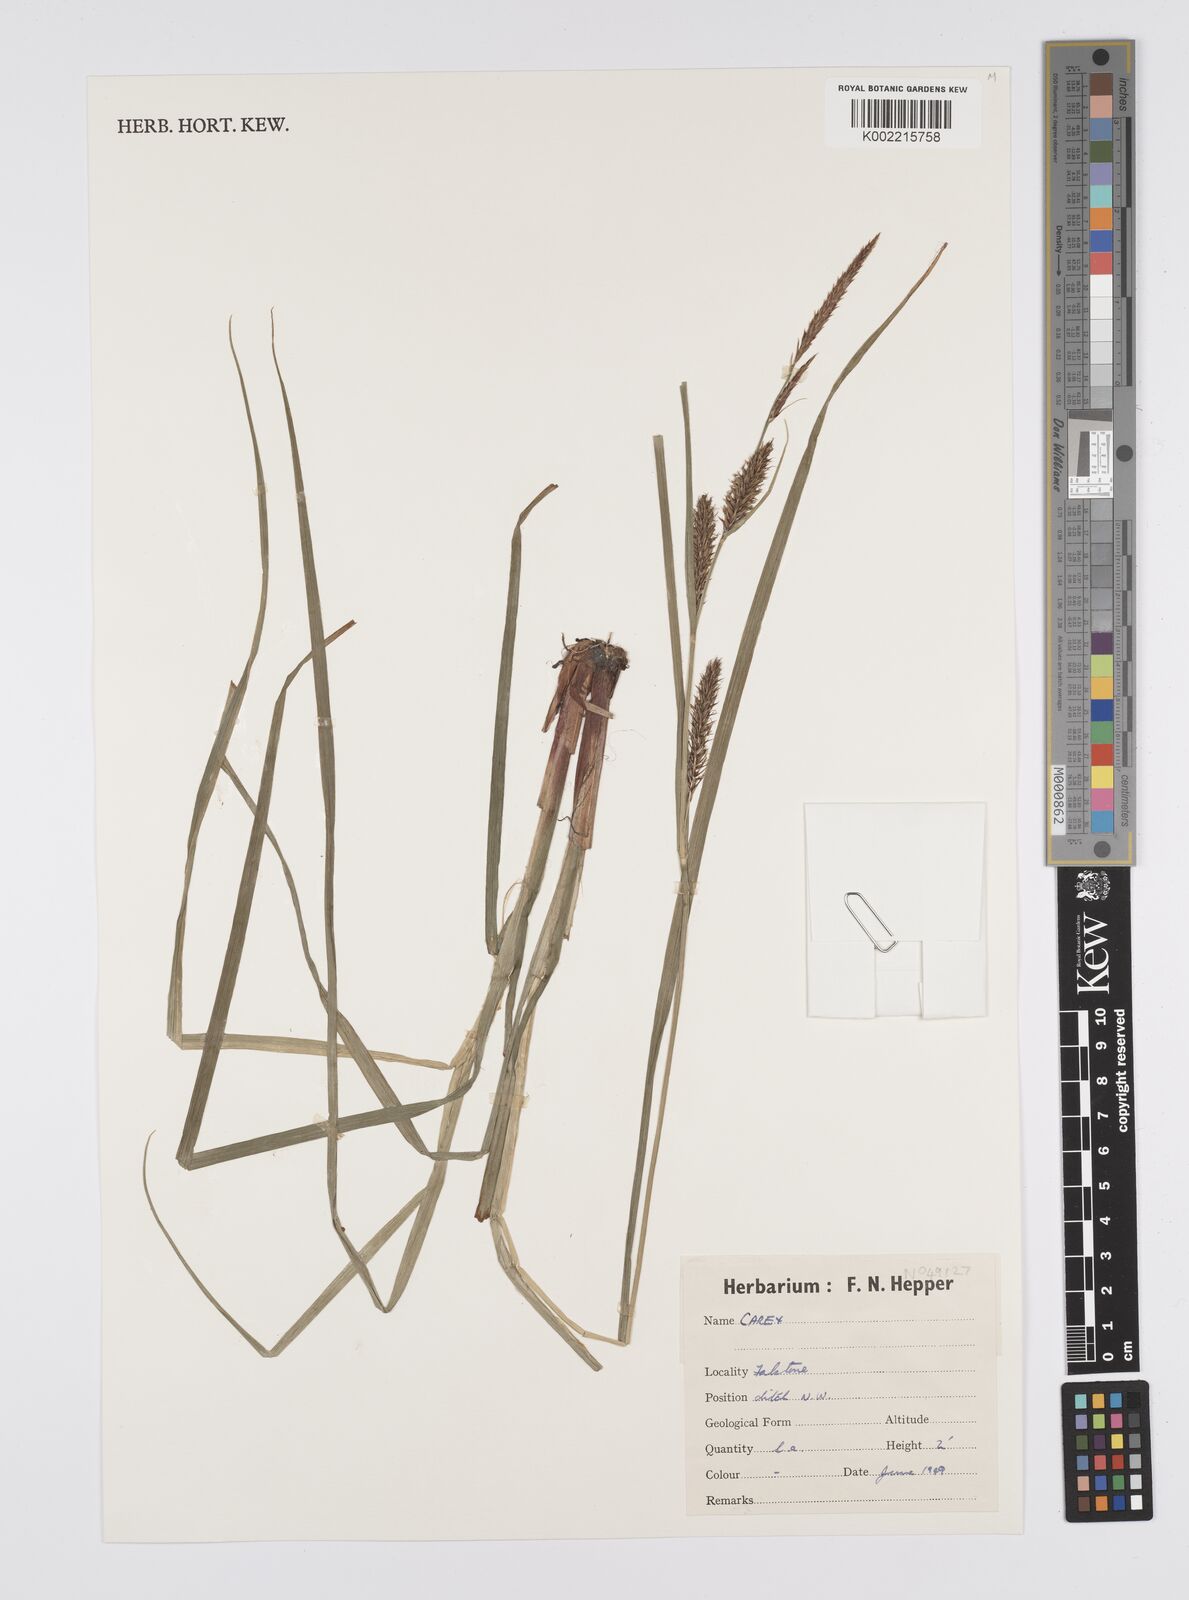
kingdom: Plantae
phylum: Tracheophyta
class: Liliopsida
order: Poales
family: Cyperaceae
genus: Carex
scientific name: Carex
